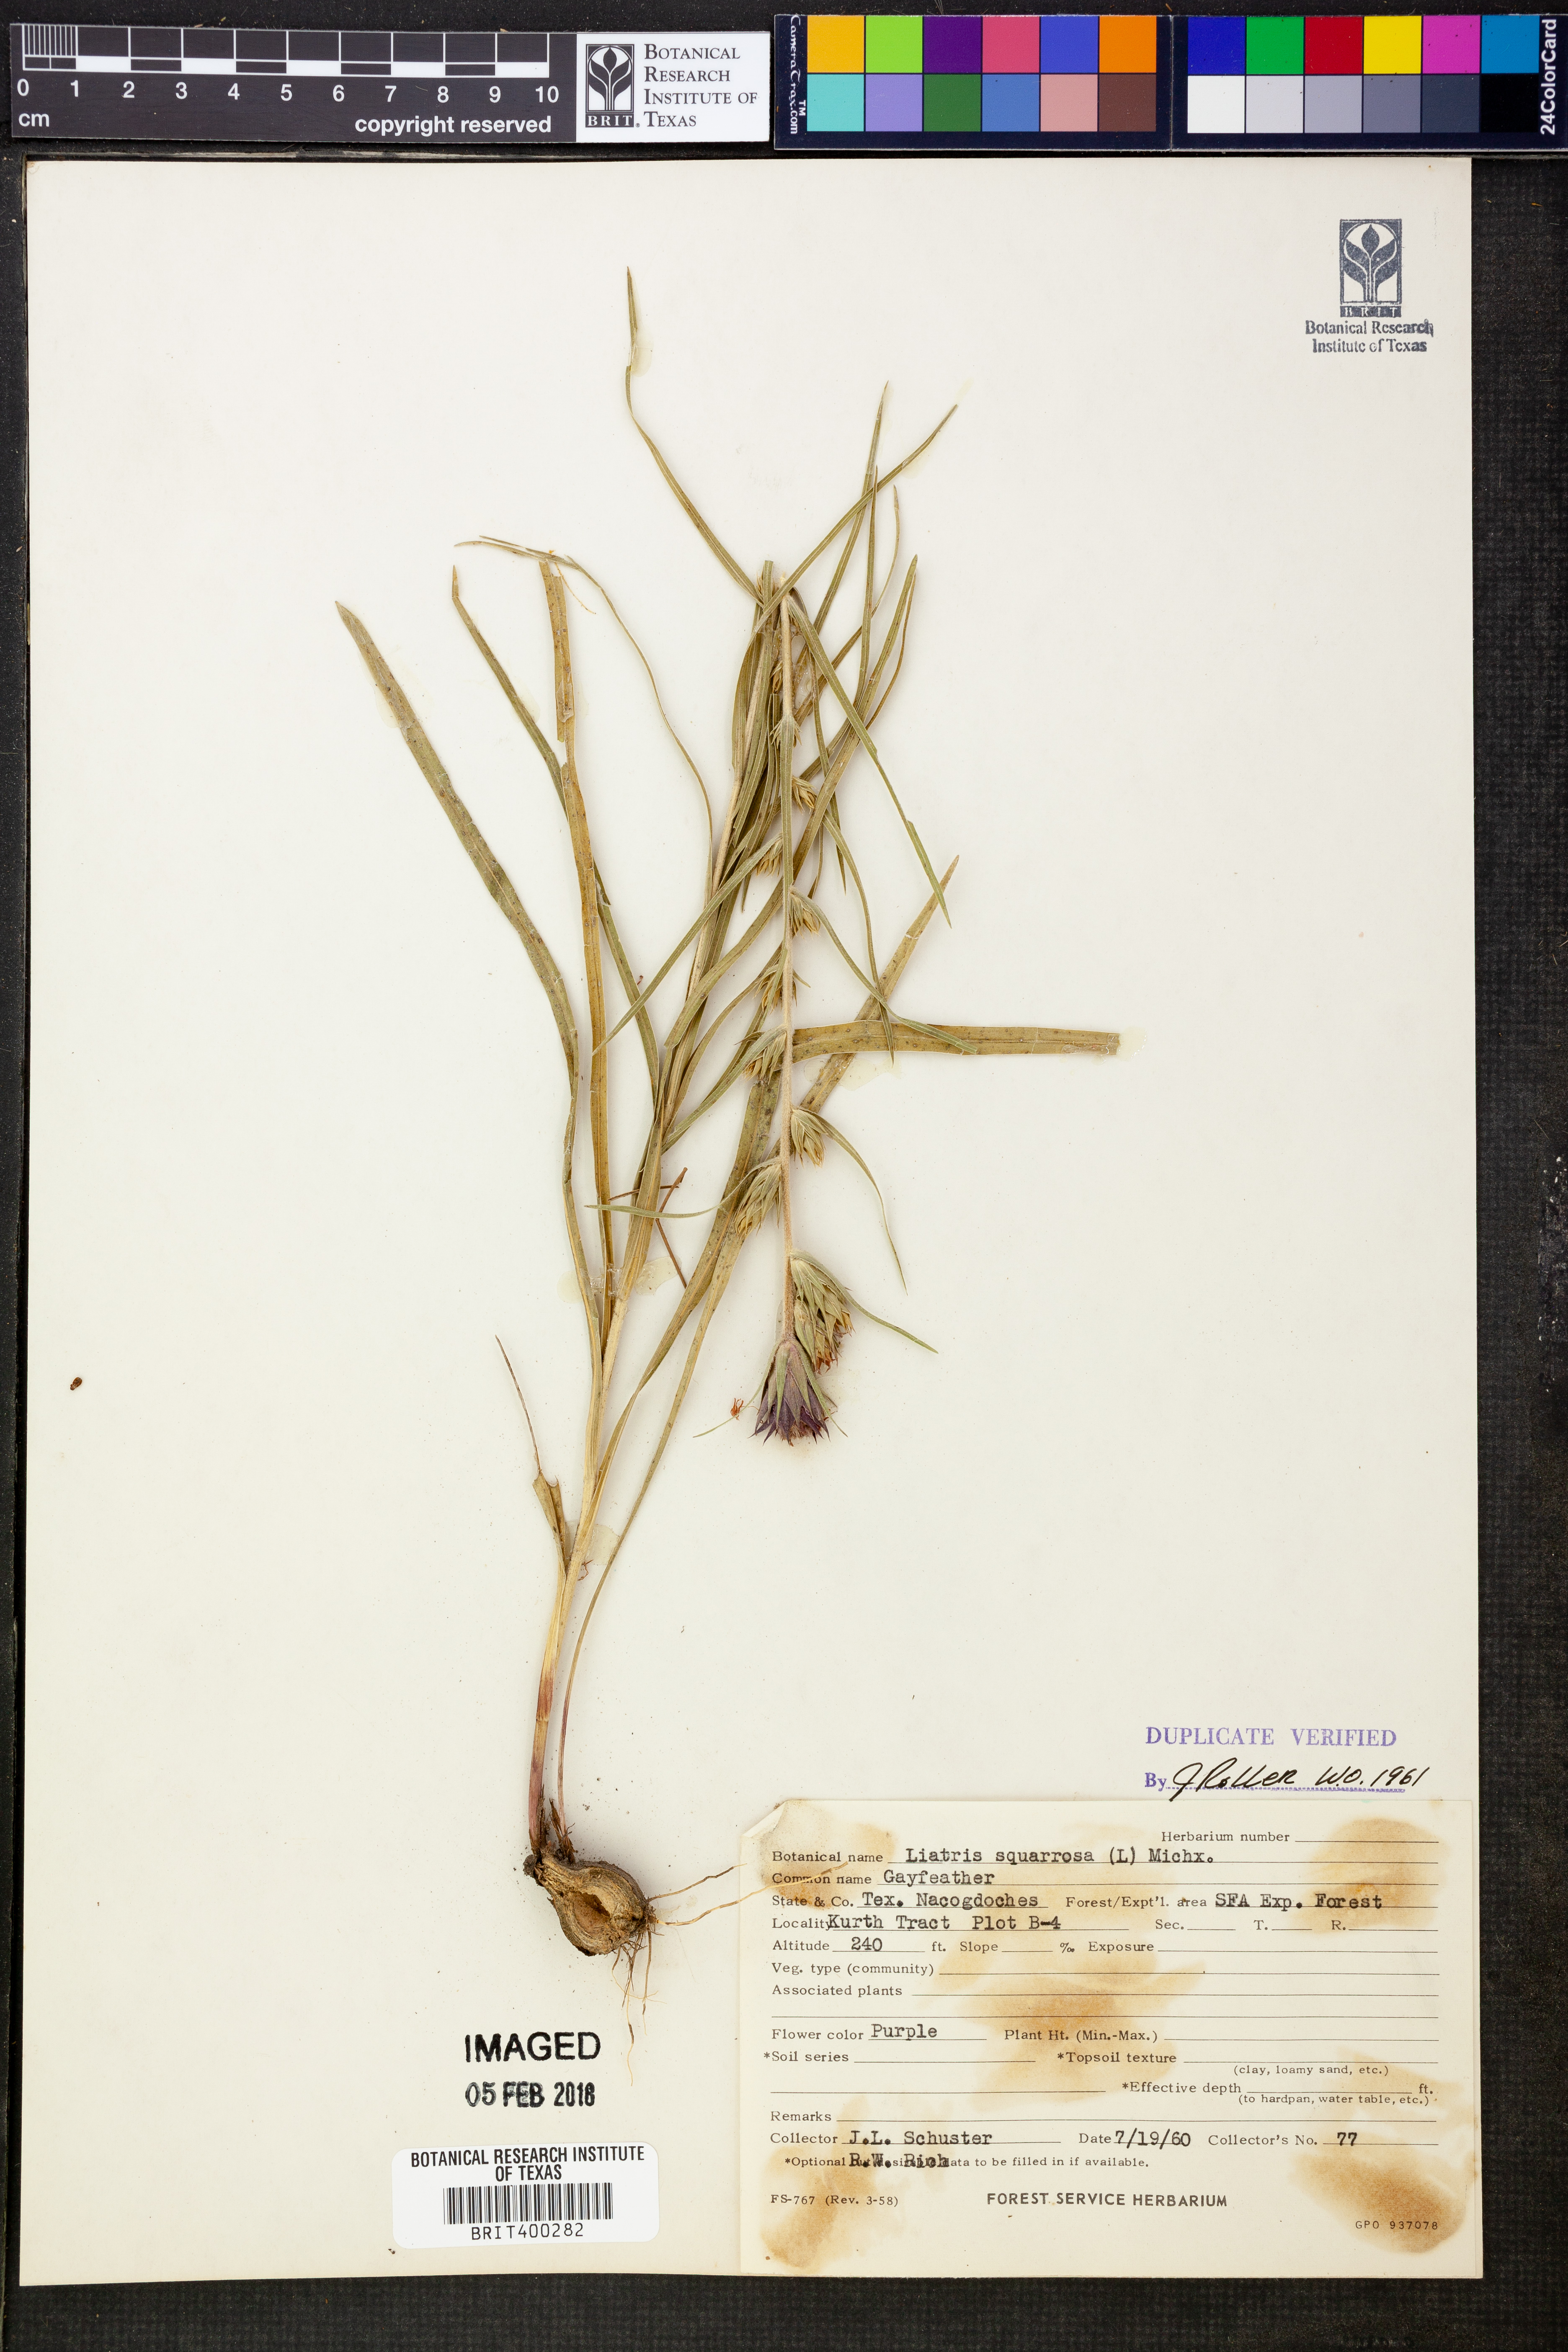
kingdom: Plantae
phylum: Tracheophyta
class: Magnoliopsida
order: Asterales
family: Asteraceae
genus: Liatris
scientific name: Liatris squarrosa
